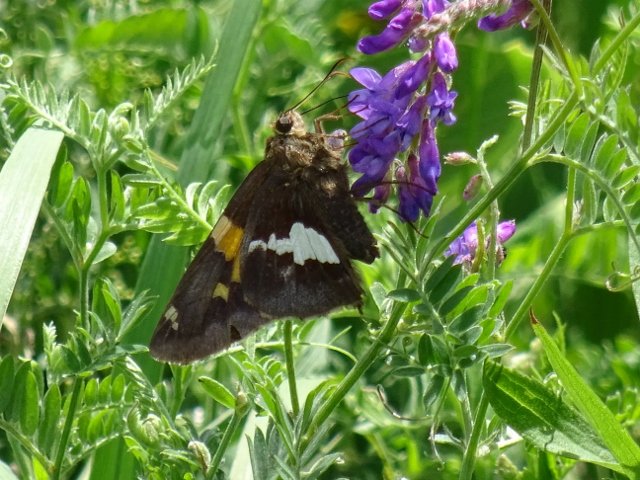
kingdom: Animalia
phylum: Arthropoda
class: Insecta
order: Lepidoptera
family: Hesperiidae
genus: Epargyreus
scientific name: Epargyreus clarus
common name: Silver-spotted Skipper
